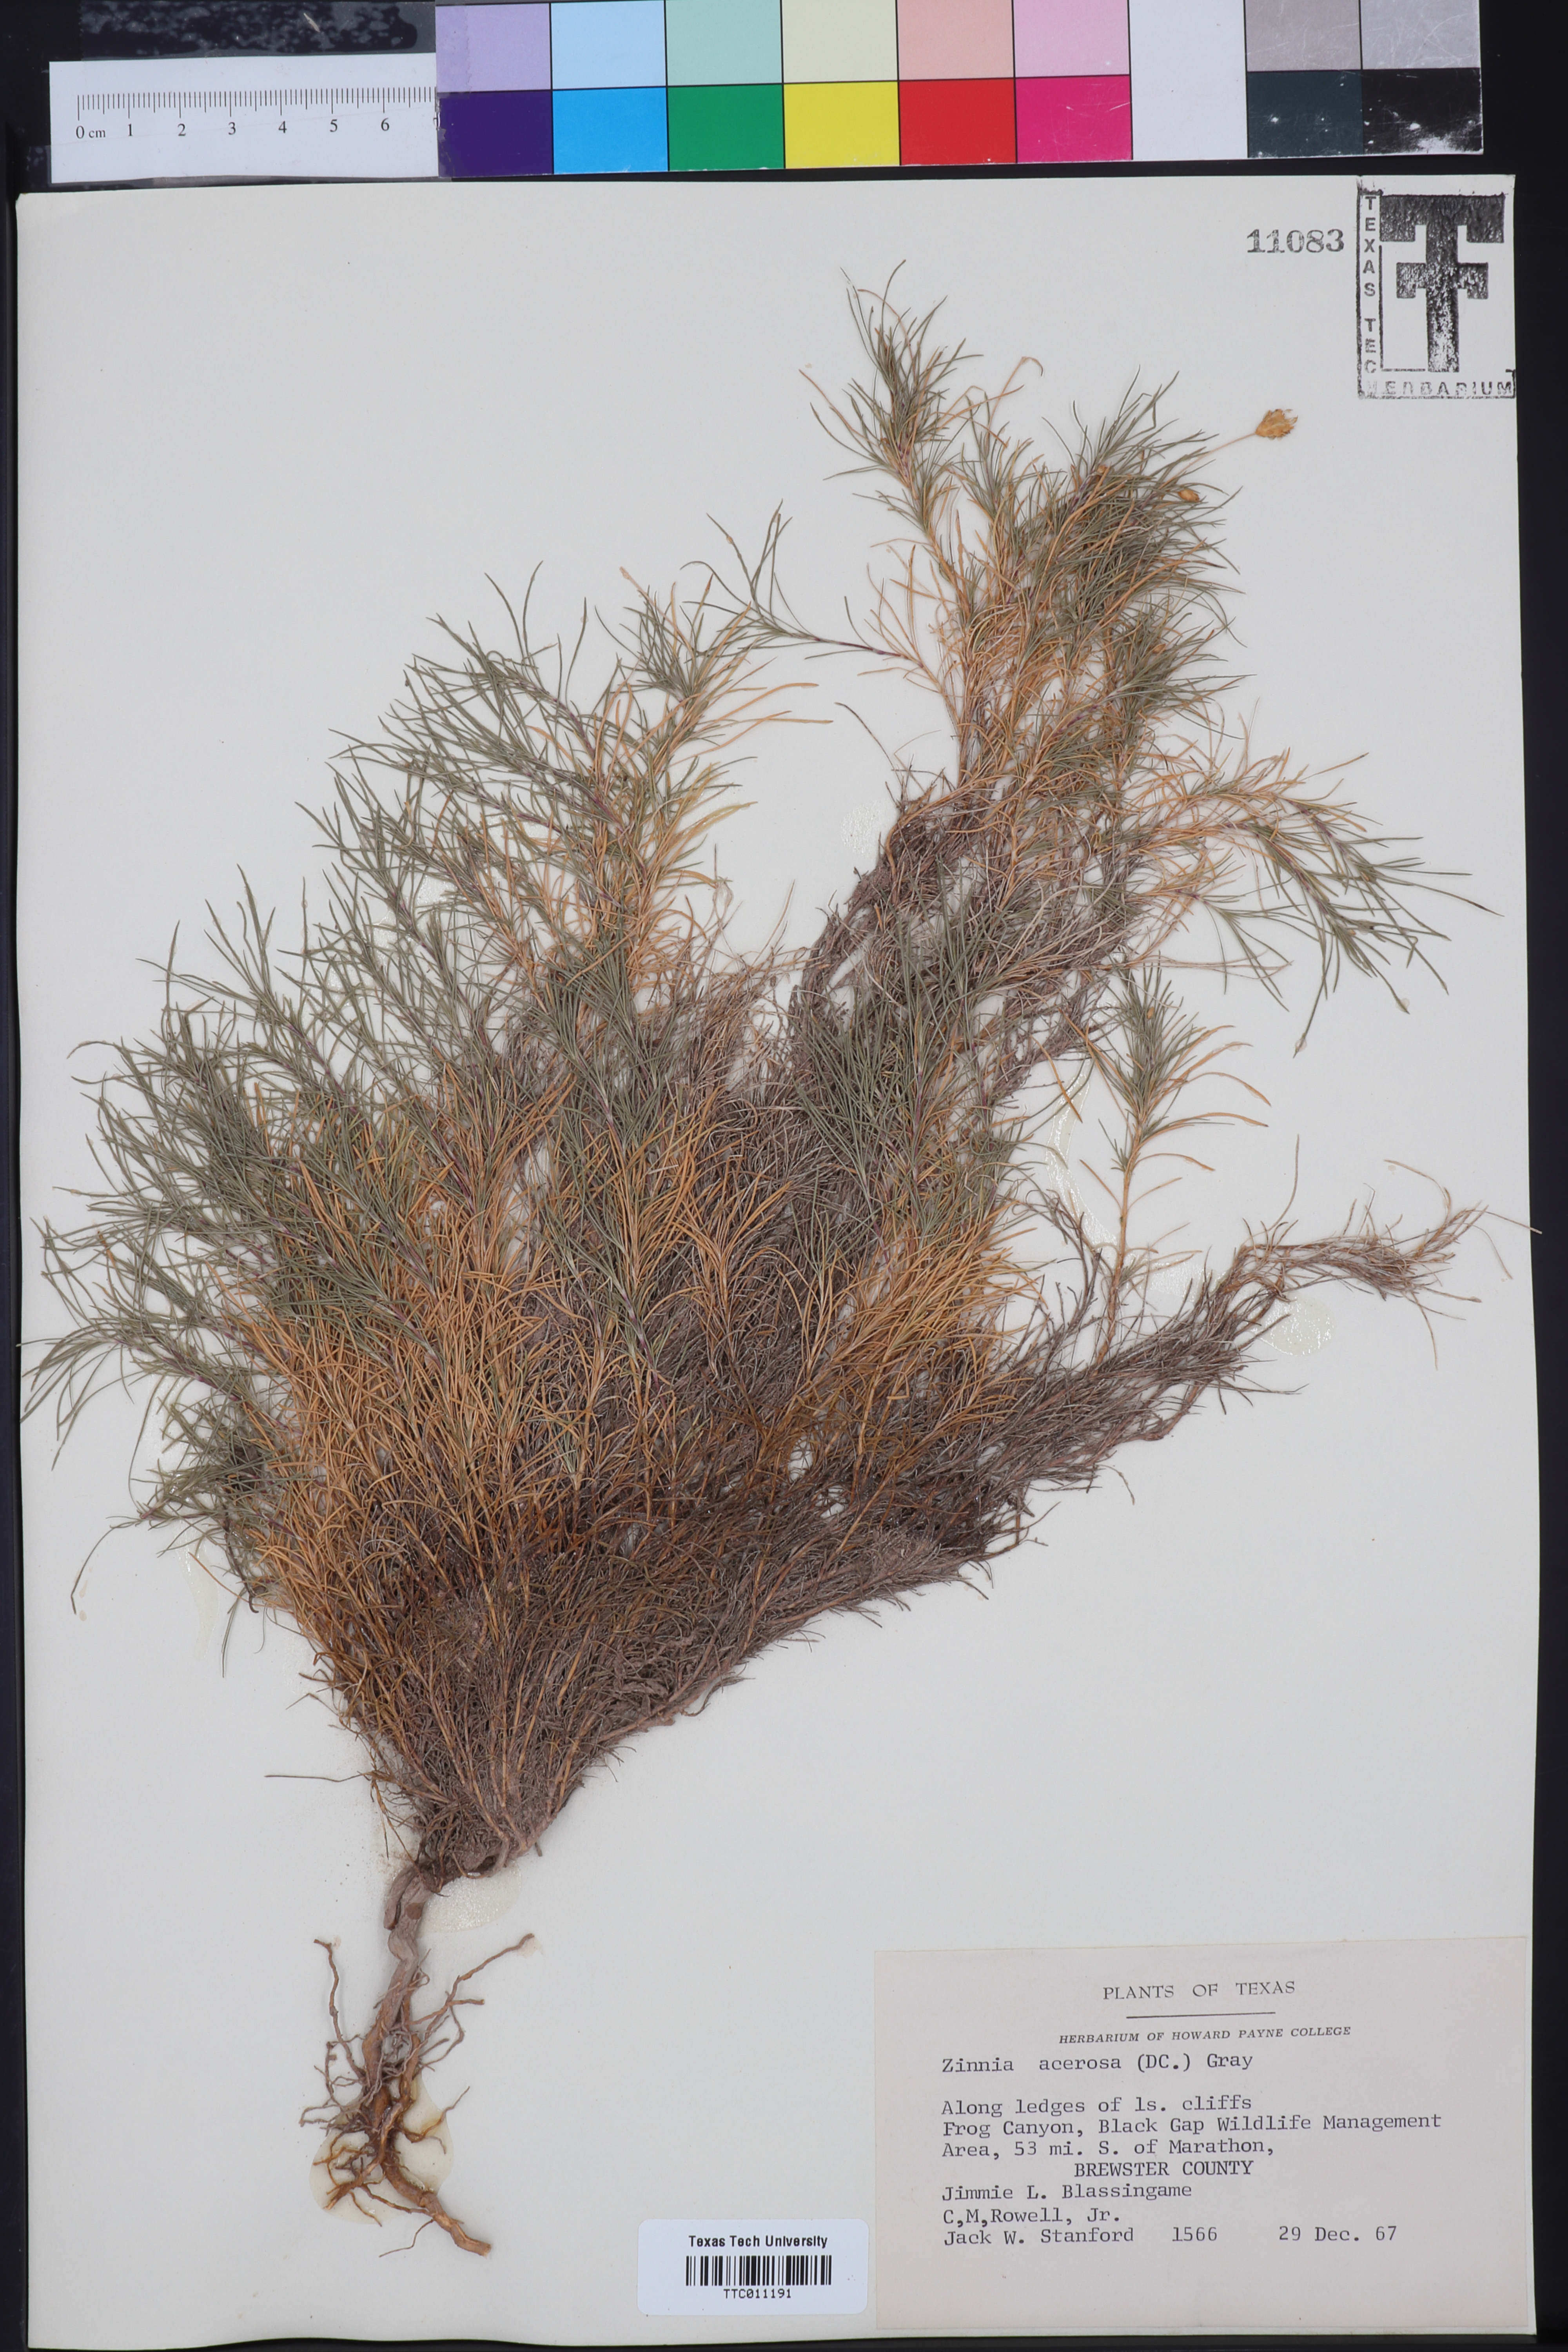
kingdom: Plantae
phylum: Tracheophyta
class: Magnoliopsida
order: Asterales
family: Asteraceae
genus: Zinnia
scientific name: Zinnia acerosa
